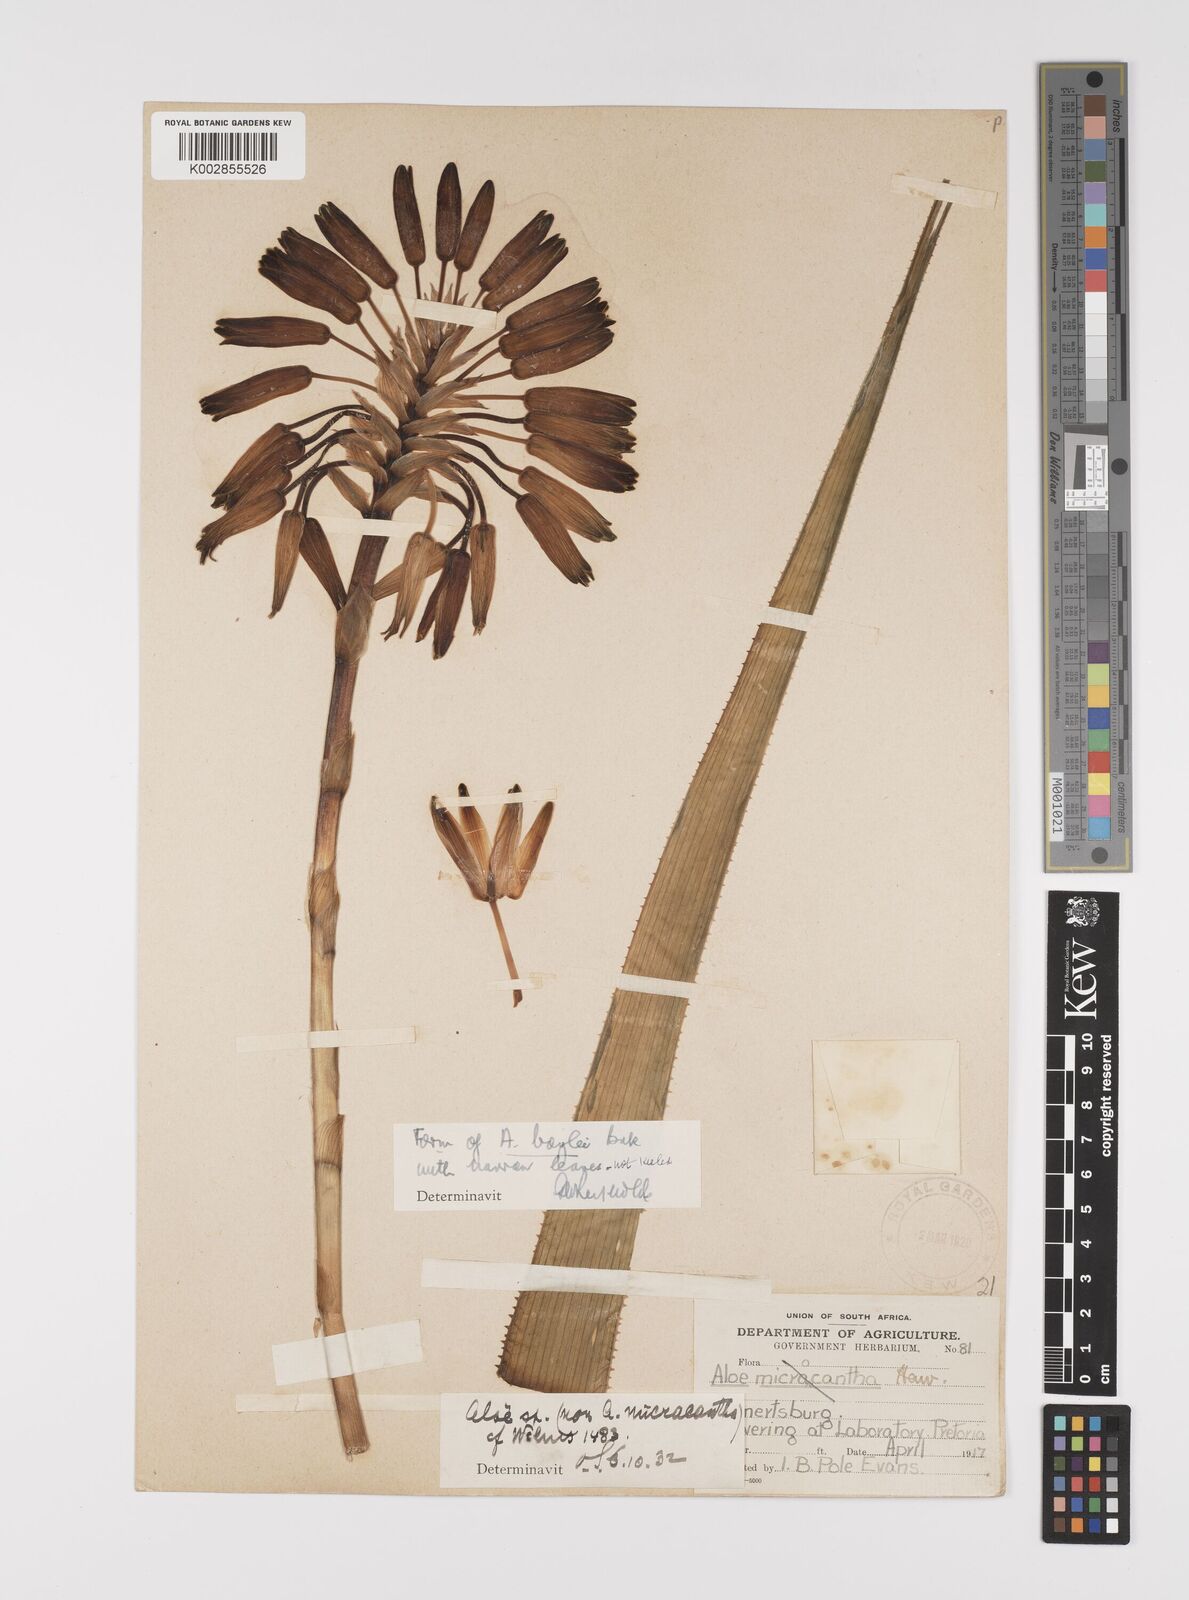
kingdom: Plantae
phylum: Tracheophyta
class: Liliopsida
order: Asparagales
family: Asphodelaceae
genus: Aloe
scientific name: Aloe boylei
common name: Broad-leaved grass aloe
